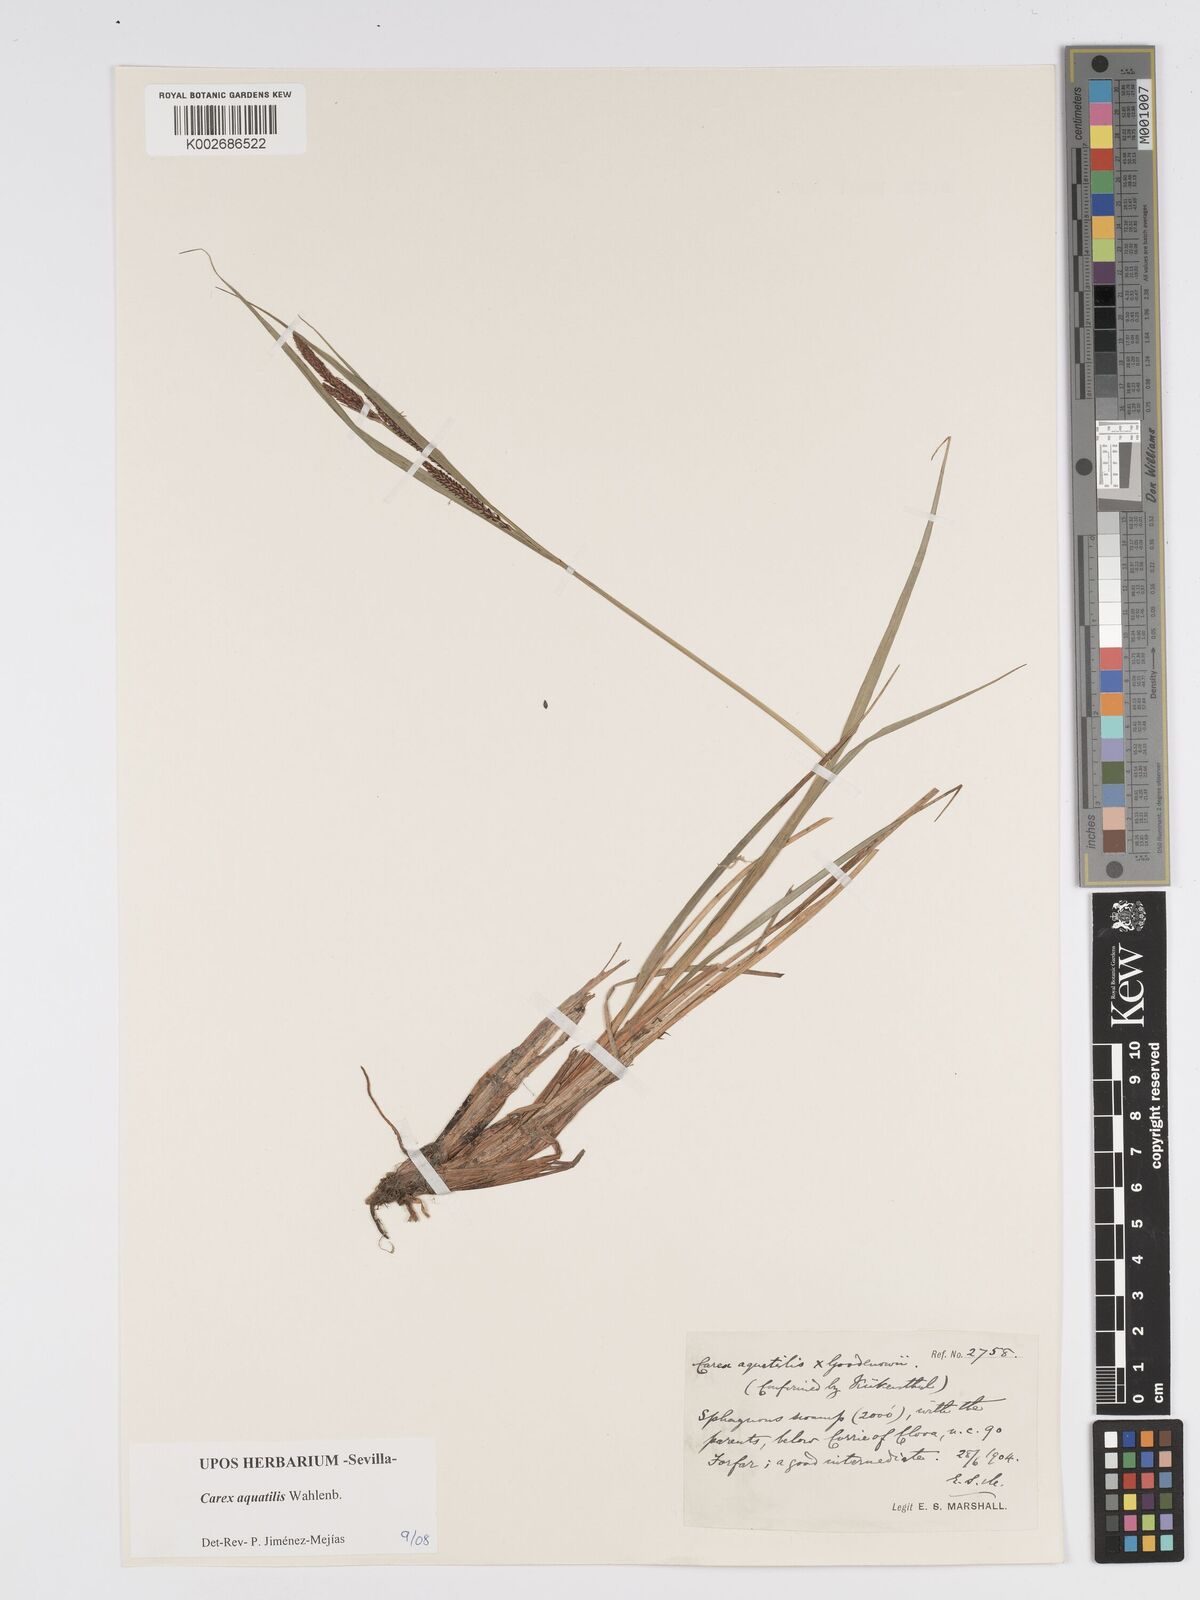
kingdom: Plantae
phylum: Tracheophyta
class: Liliopsida
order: Poales
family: Cyperaceae
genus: Carex
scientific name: Carex aquatilis
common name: Water sedge
